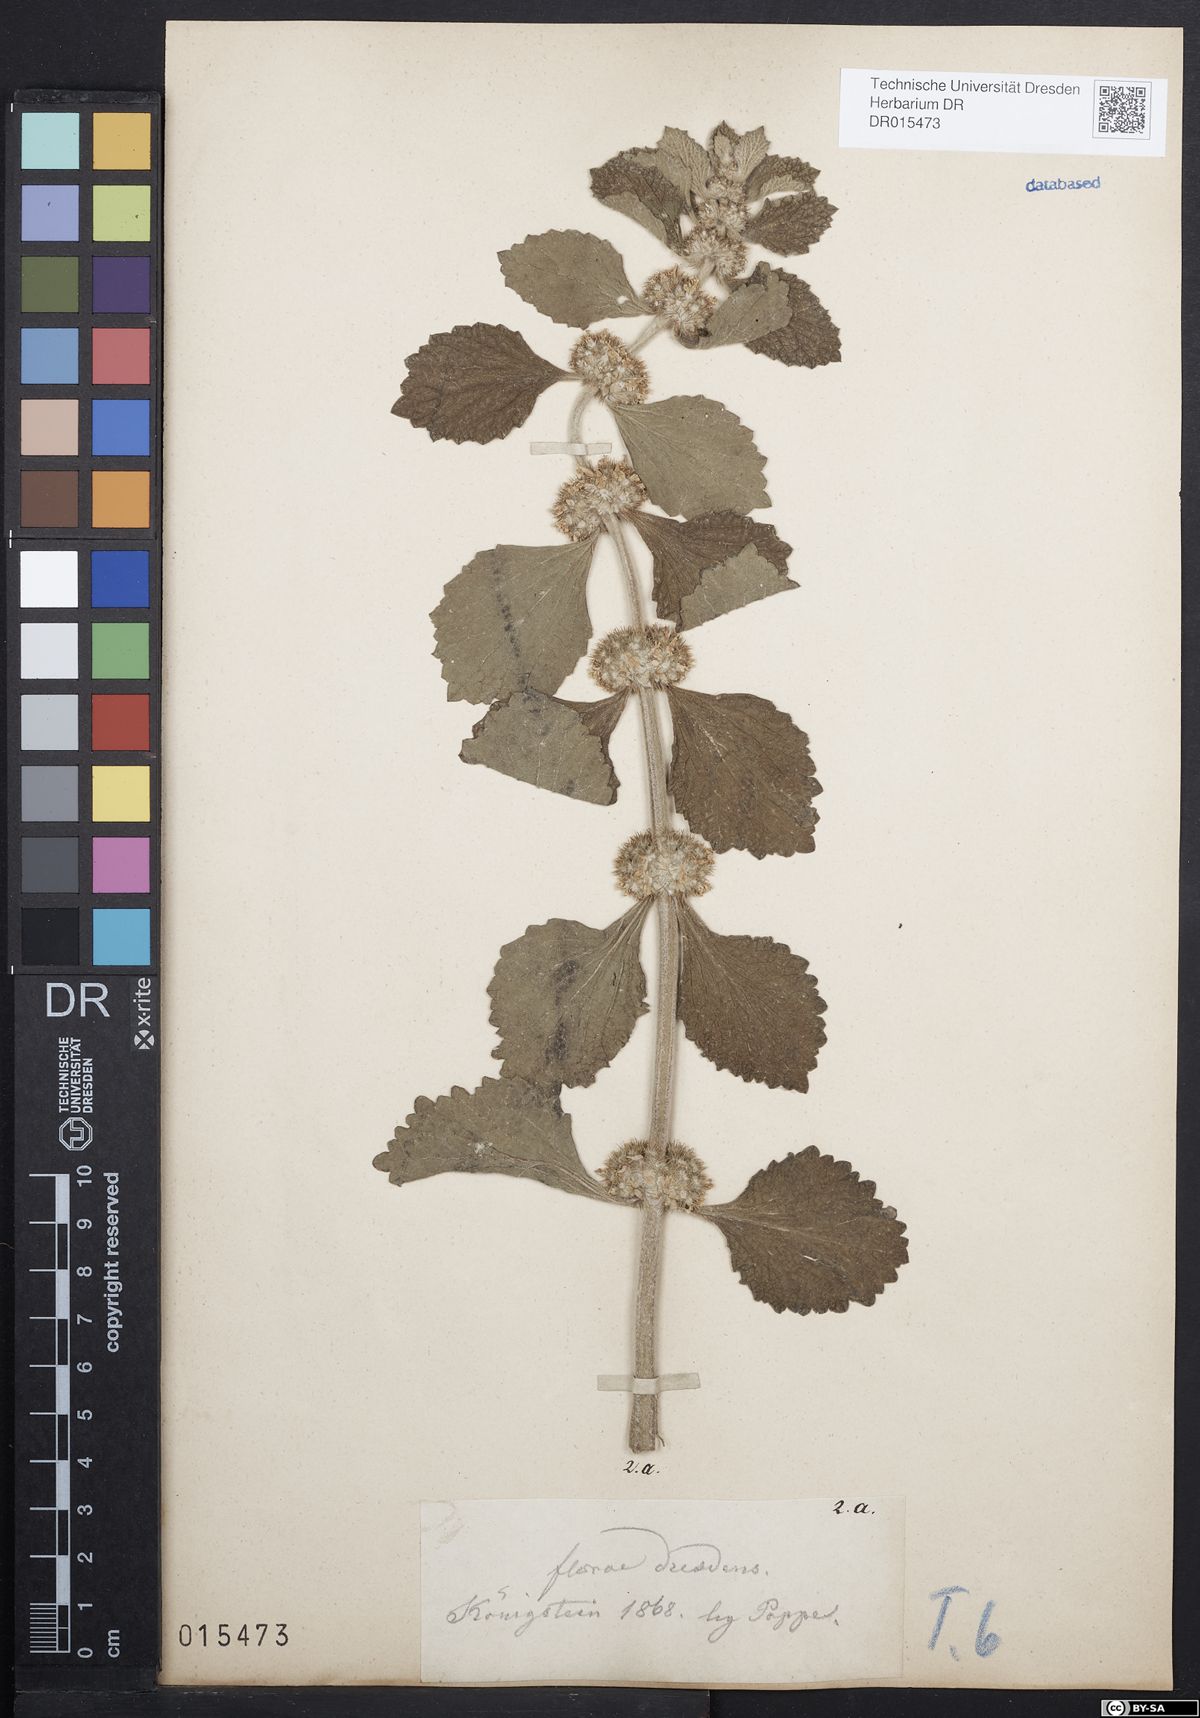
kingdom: Plantae
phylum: Tracheophyta
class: Magnoliopsida
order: Lamiales
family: Lamiaceae
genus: Marrubium
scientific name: Marrubium vulgare
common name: Horehound
